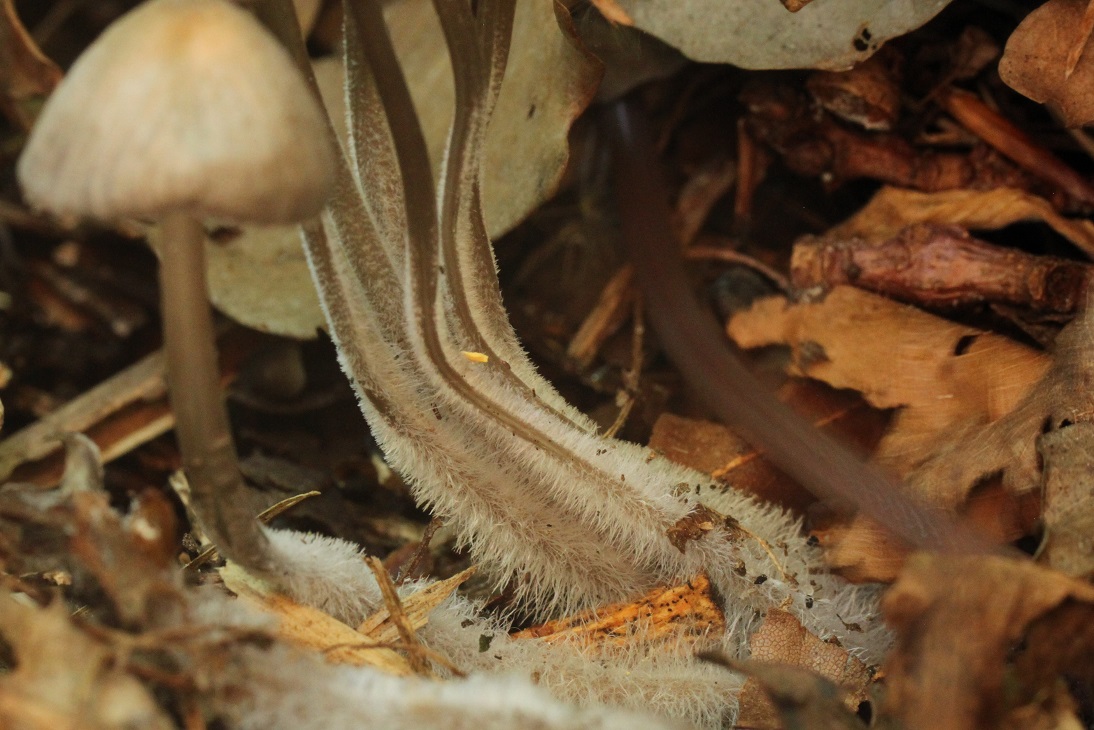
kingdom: Fungi
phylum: Basidiomycota
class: Agaricomycetes
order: Agaricales
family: Mycenaceae
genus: Mycena
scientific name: Mycena abramsii
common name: sommer-huesvamp
